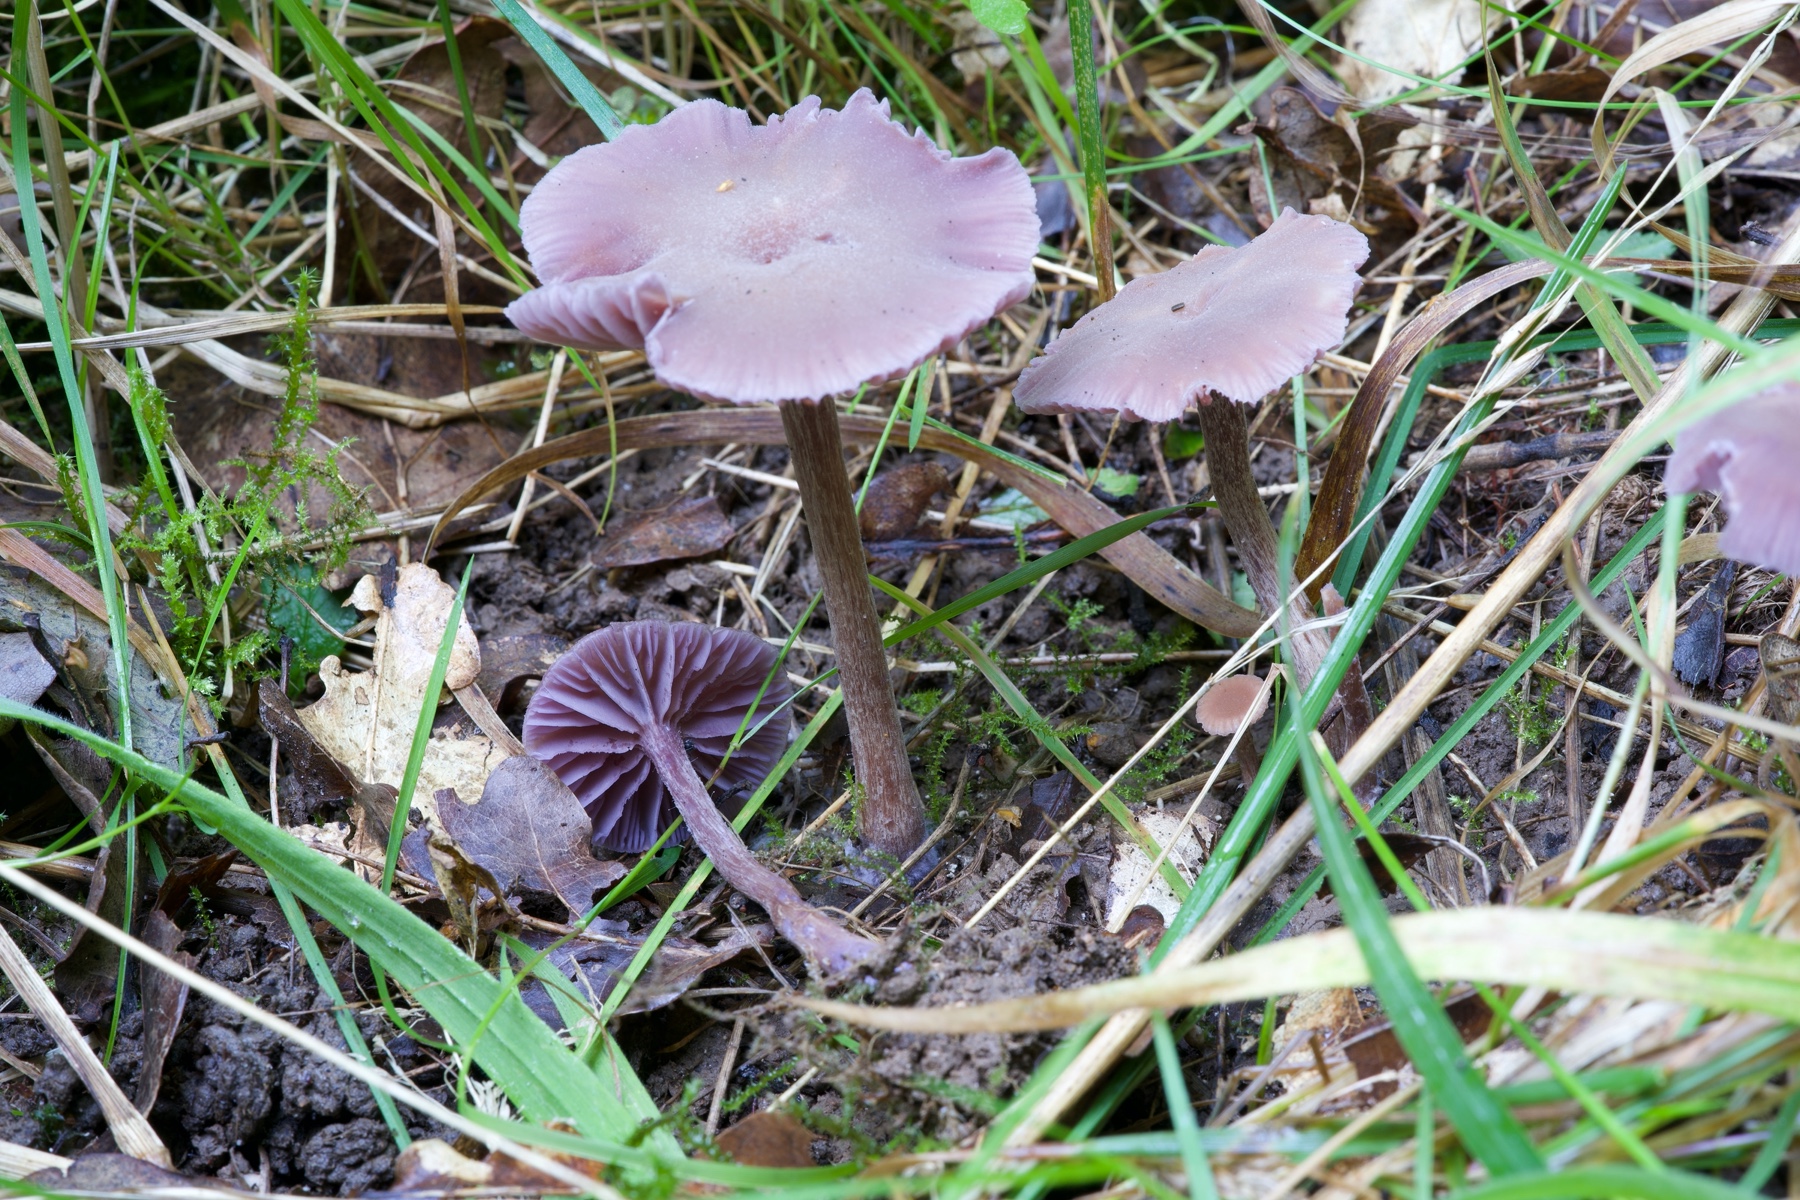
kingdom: Fungi
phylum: Basidiomycota
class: Agaricomycetes
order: Agaricales
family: Hydnangiaceae
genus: Laccaria
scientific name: Laccaria amethystina
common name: violet ametysthat
